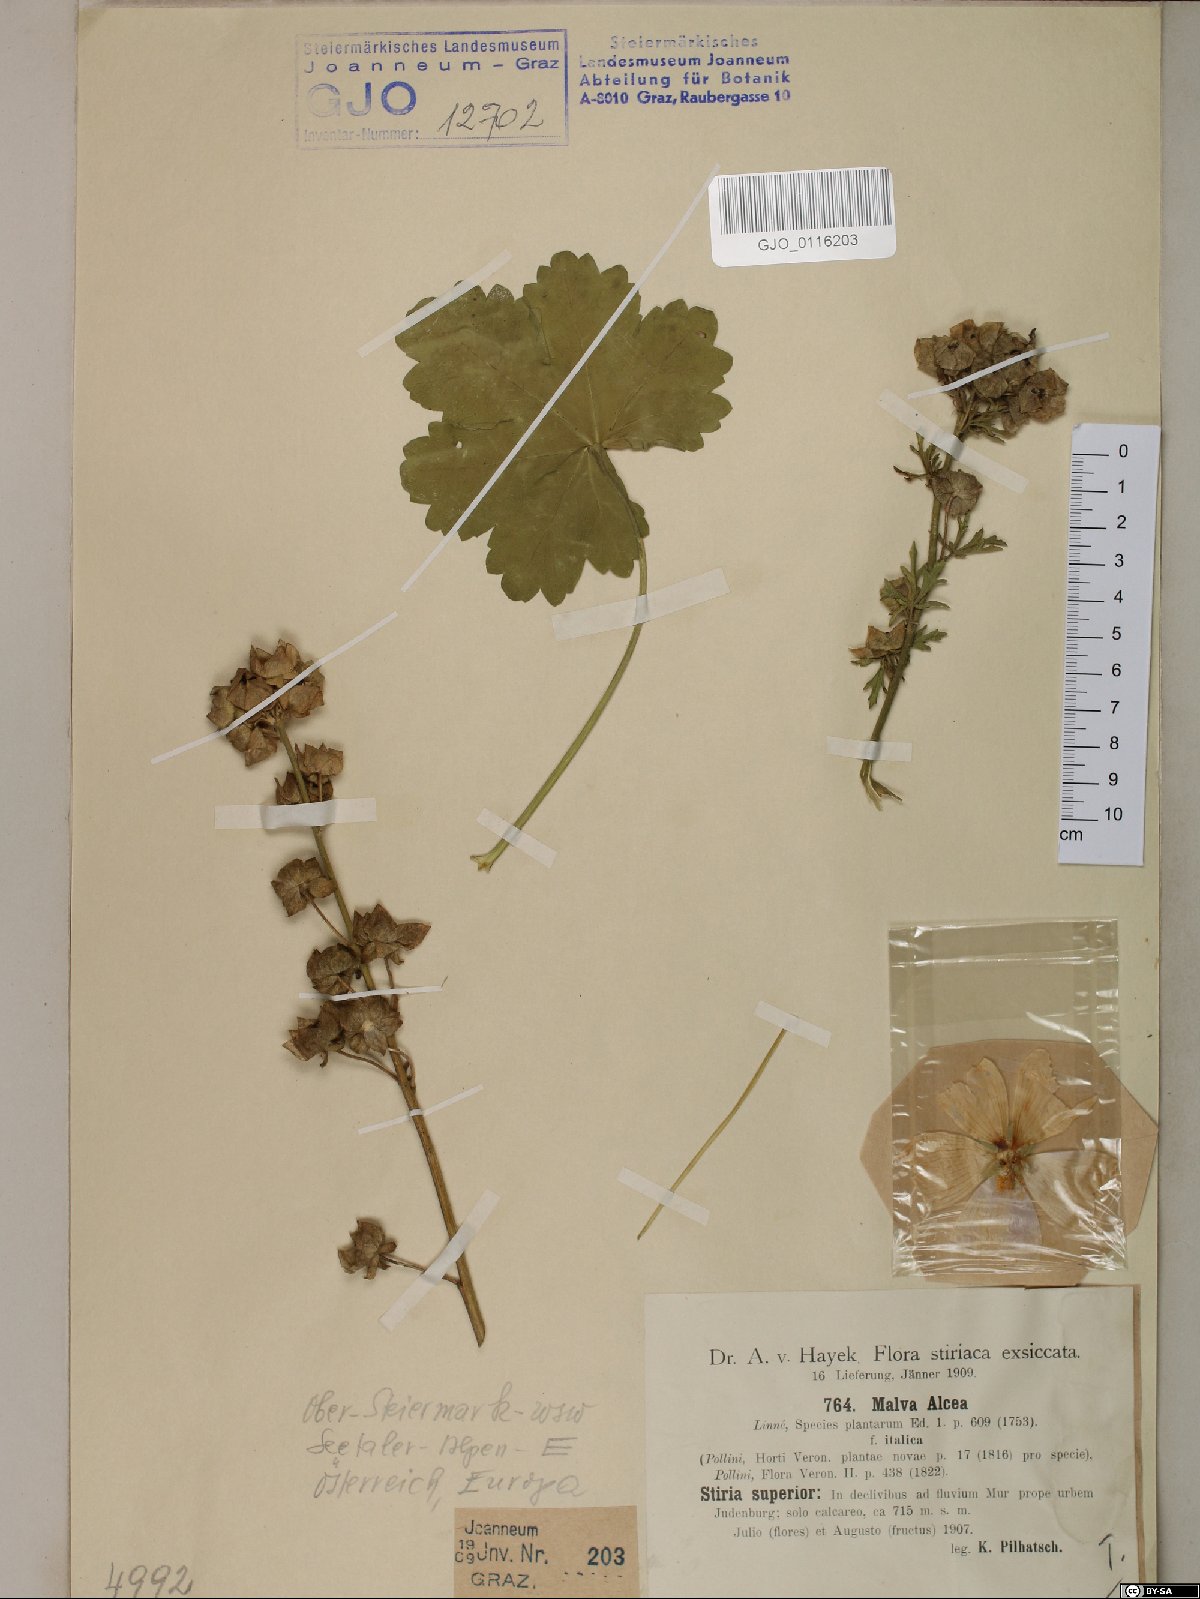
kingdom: Plantae
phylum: Tracheophyta
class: Magnoliopsida
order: Malvales
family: Malvaceae
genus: Malva
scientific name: Malva alcea
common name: Greater musk-mallow
